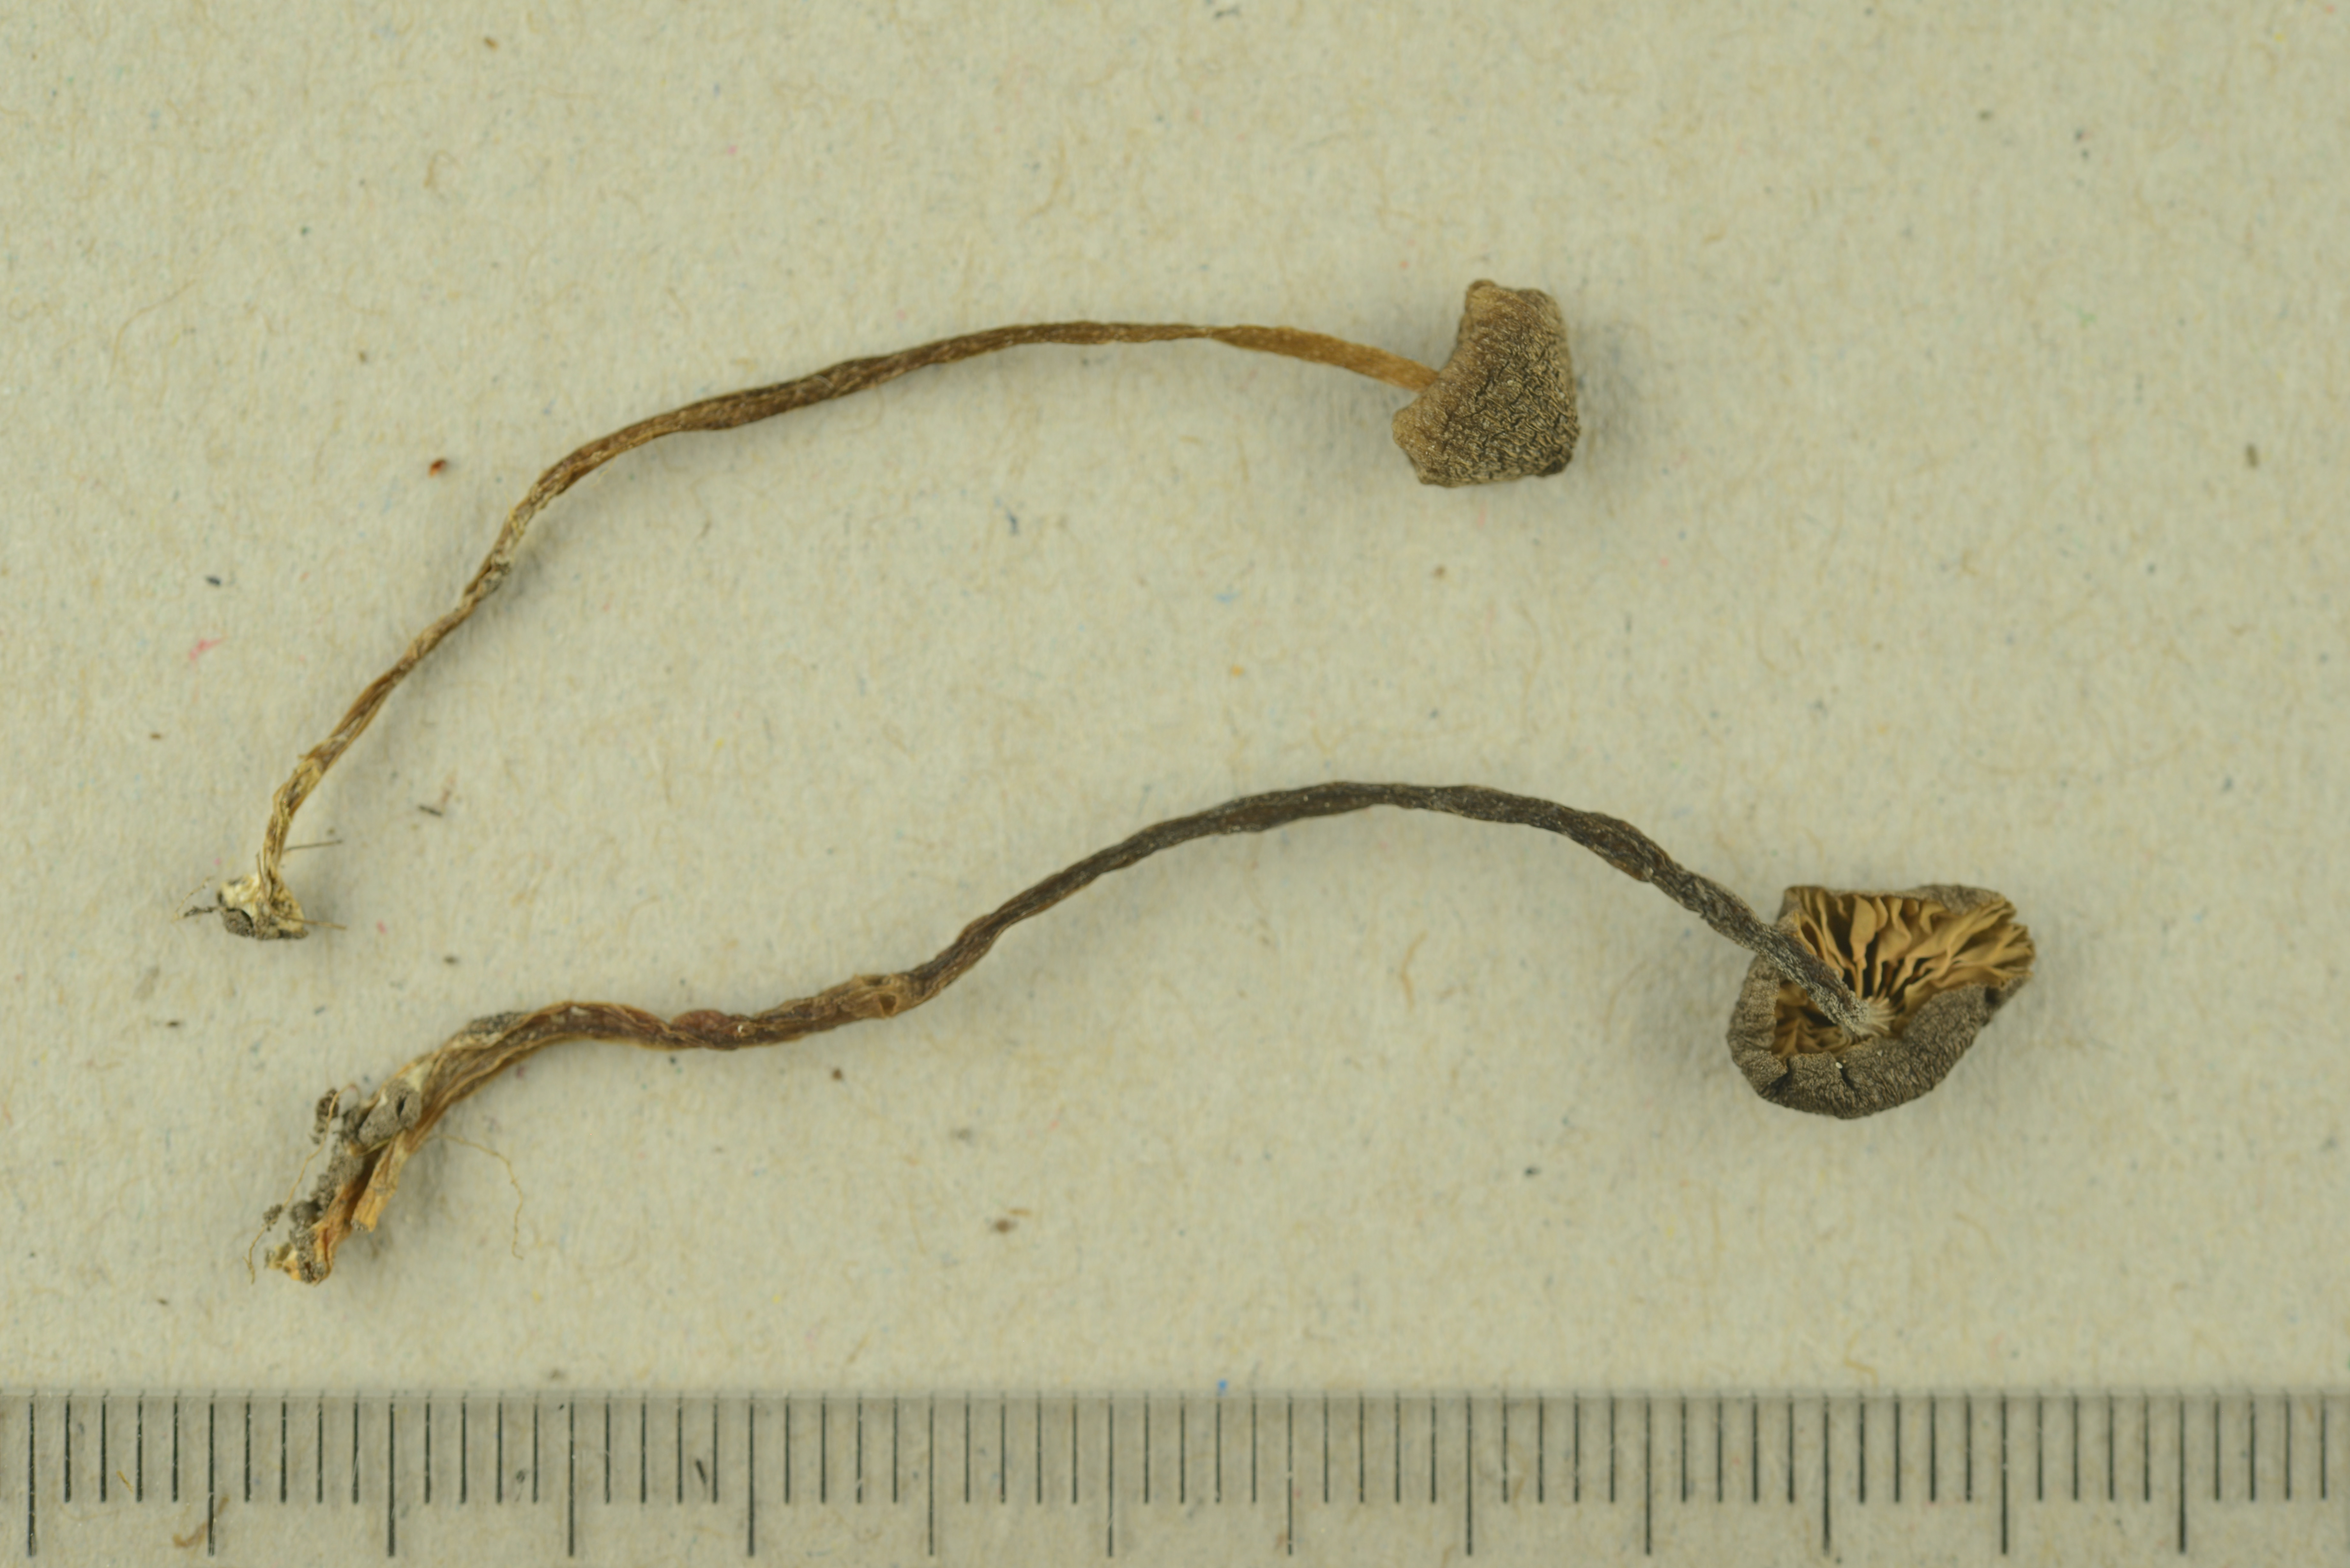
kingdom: Fungi
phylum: Basidiomycota
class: Agaricomycetes
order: Agaricales
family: Entolomataceae
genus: Entoloma
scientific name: Entoloma subcuboideum
